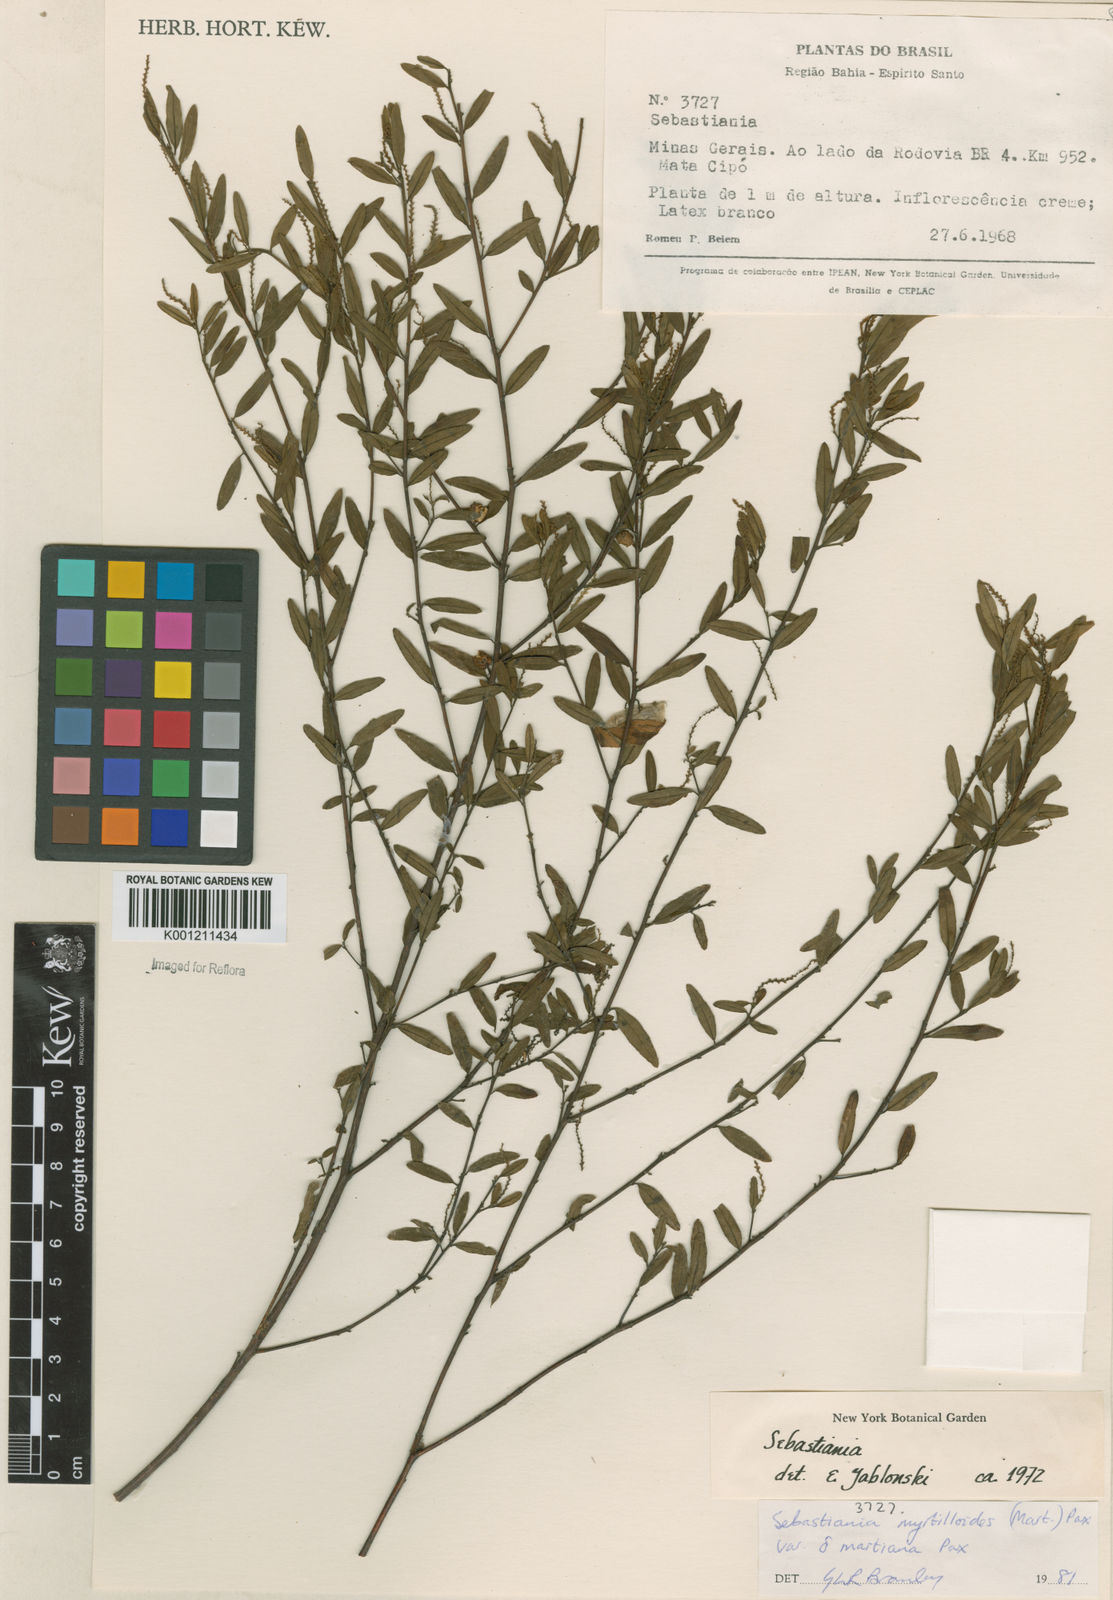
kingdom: Plantae
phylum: Tracheophyta
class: Magnoliopsida
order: Malpighiales
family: Euphorbiaceae
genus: Microstachys
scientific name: Microstachys
